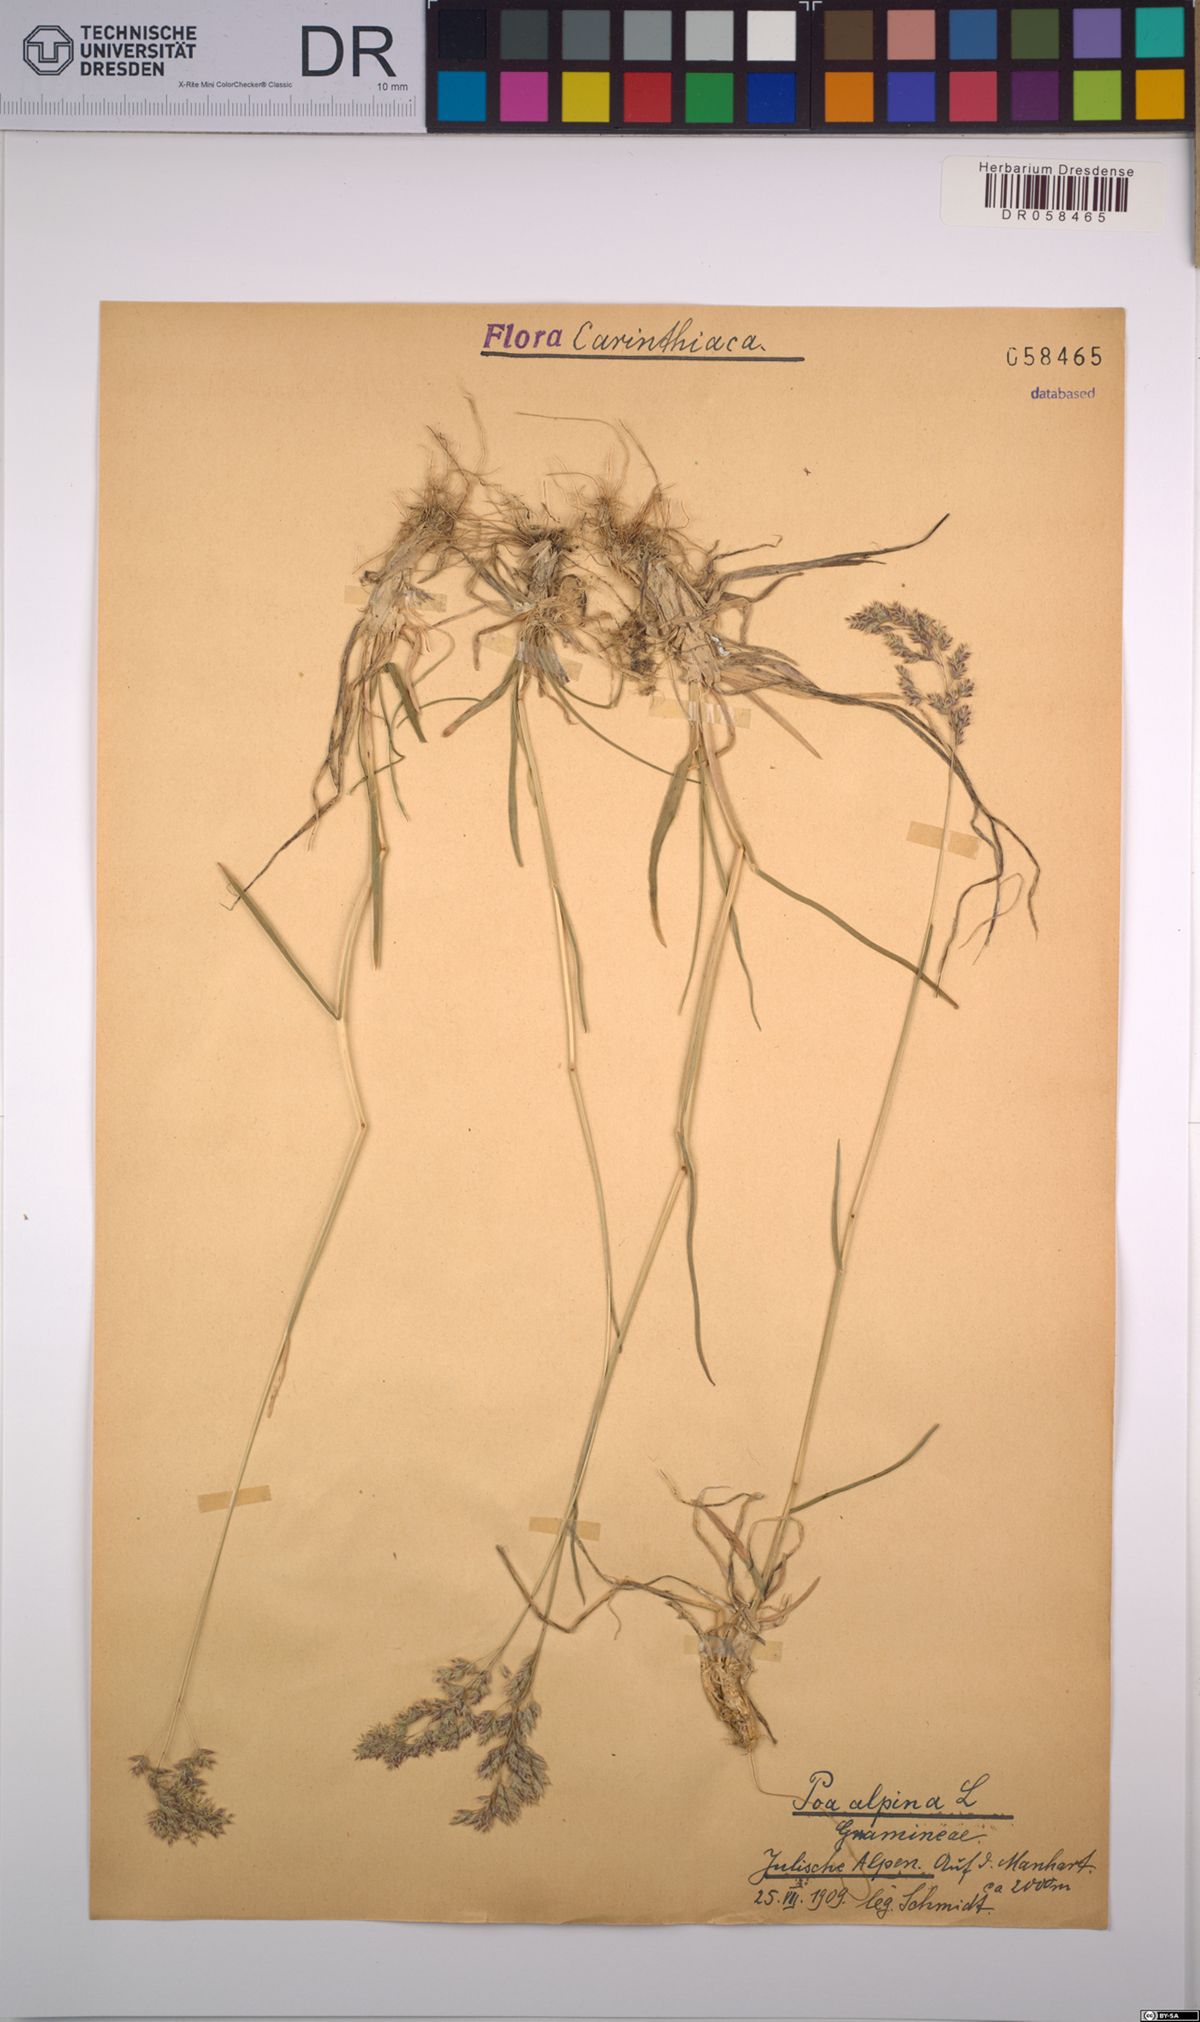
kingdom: Plantae
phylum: Tracheophyta
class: Liliopsida
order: Poales
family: Poaceae
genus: Poa
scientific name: Poa alpina
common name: Alpine bluegrass
